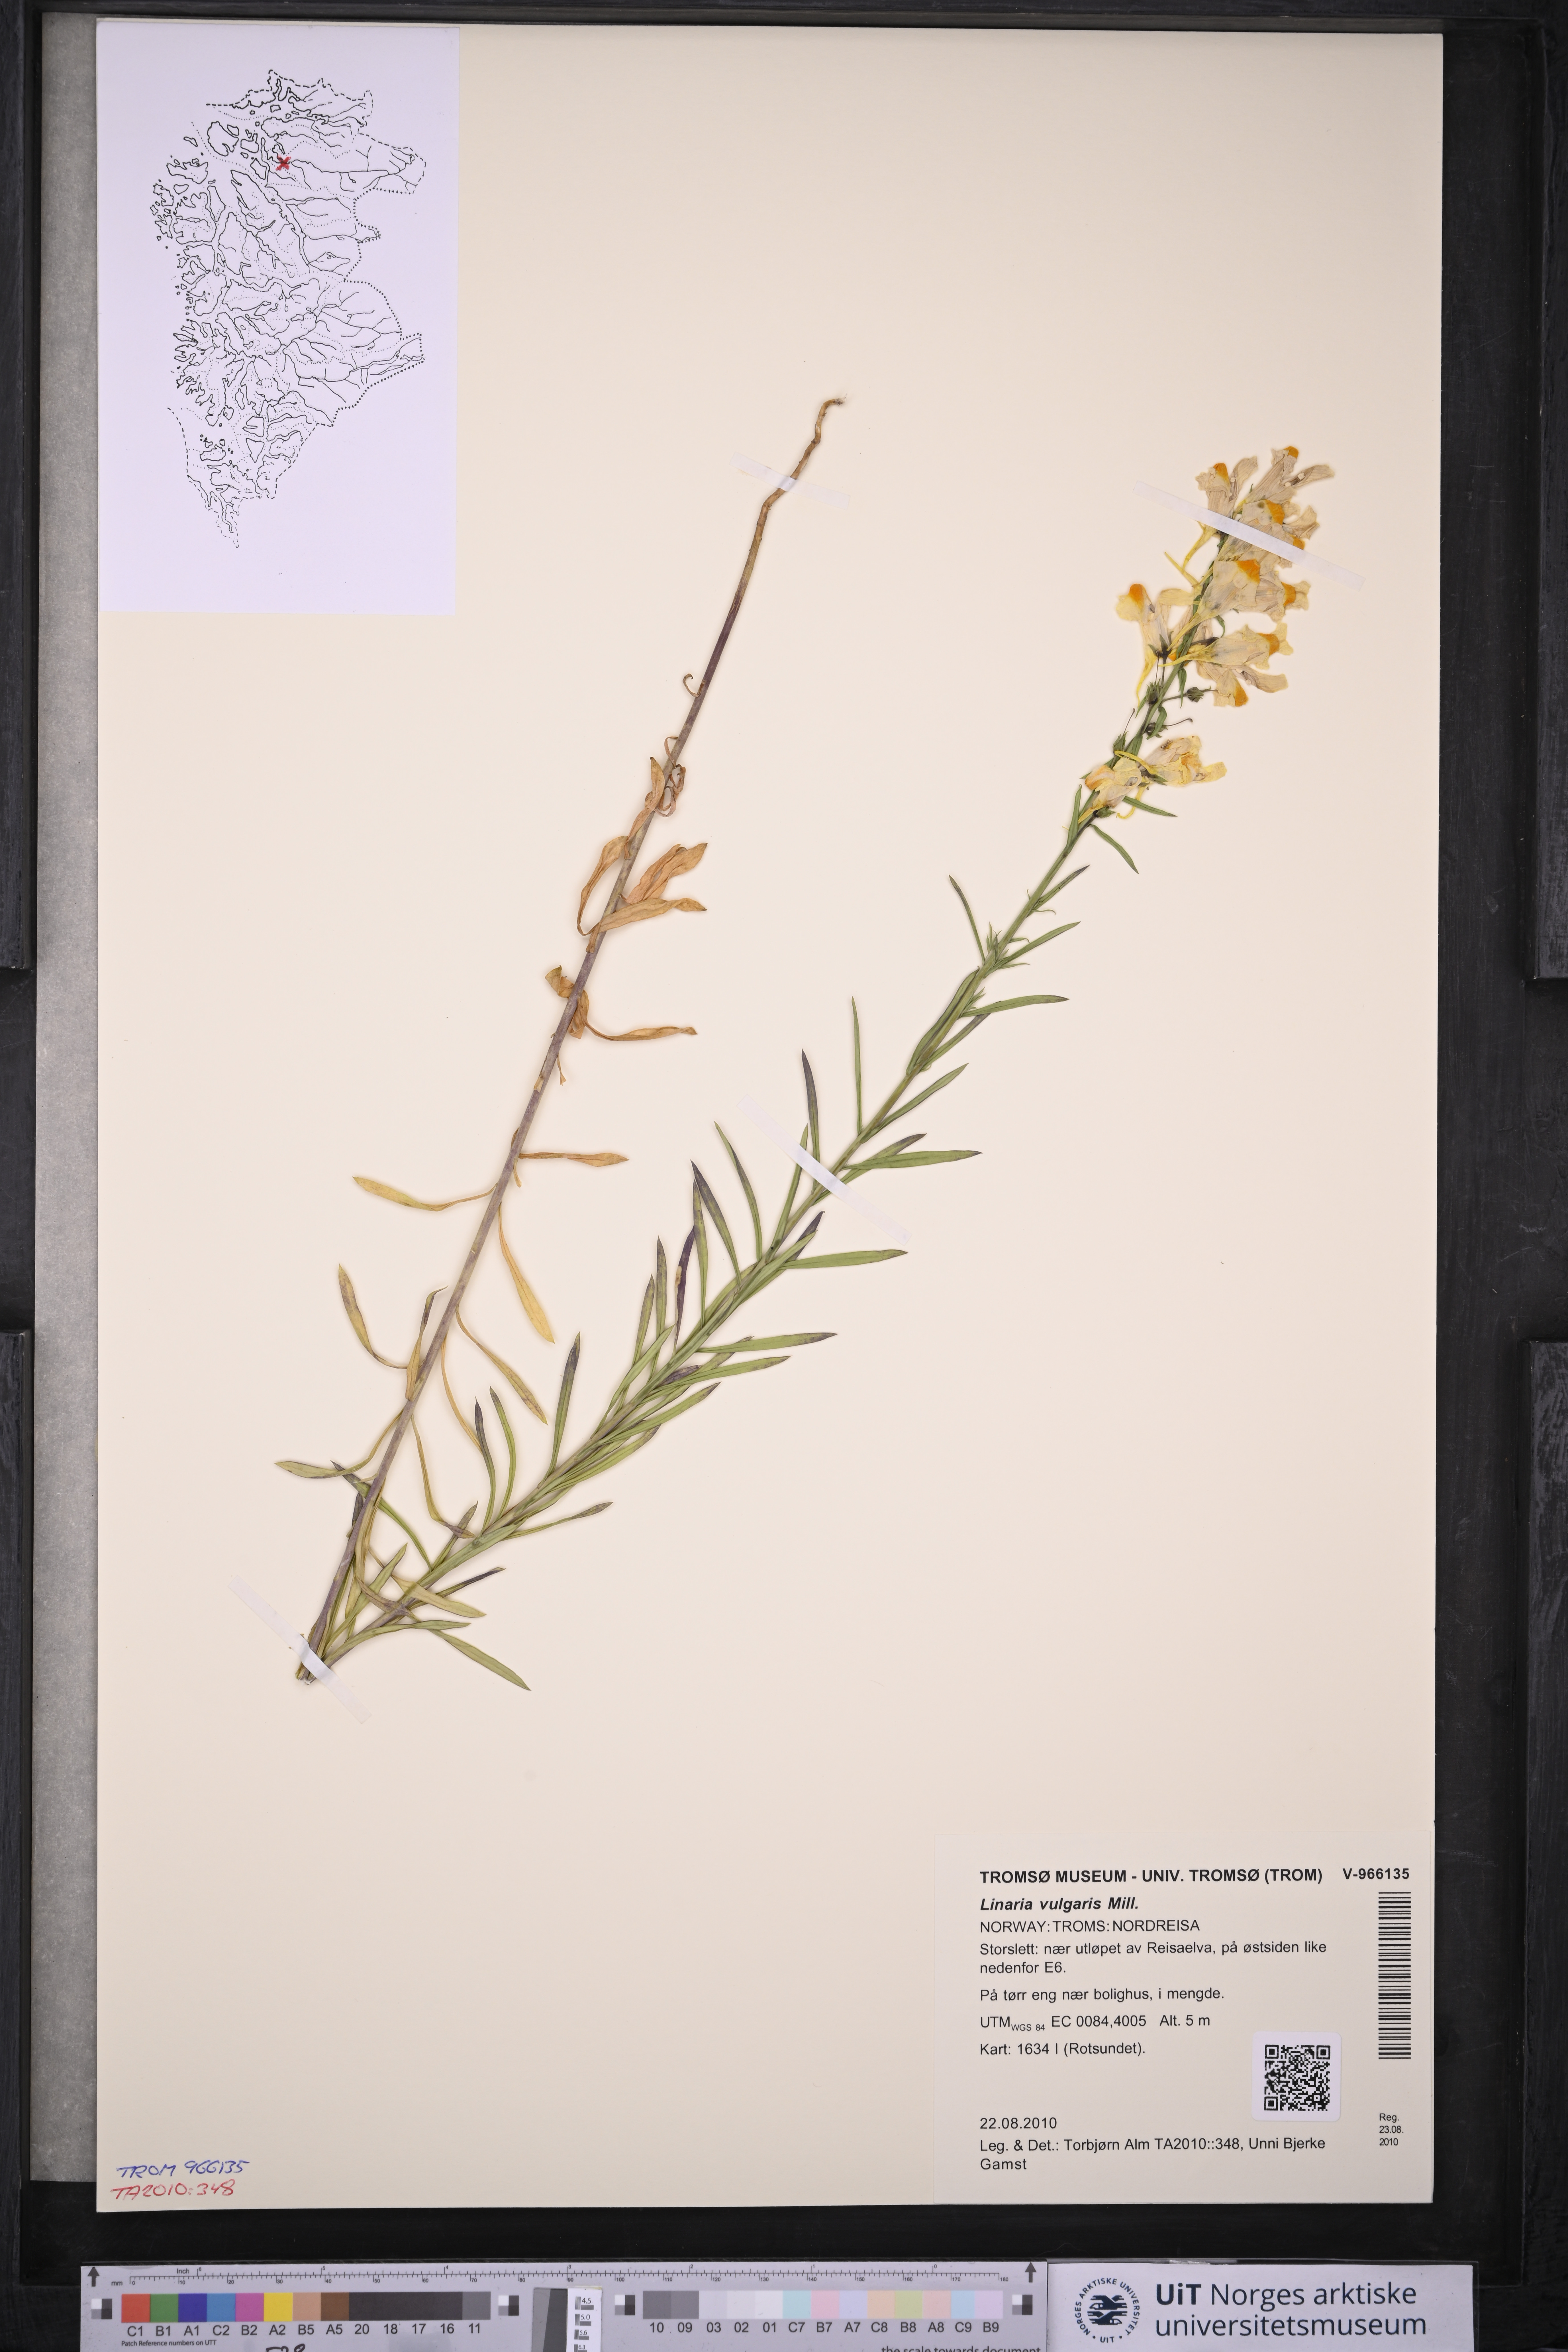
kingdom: Plantae
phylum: Tracheophyta
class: Magnoliopsida
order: Lamiales
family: Plantaginaceae
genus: Linaria
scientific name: Linaria vulgaris
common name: Butter and eggs
